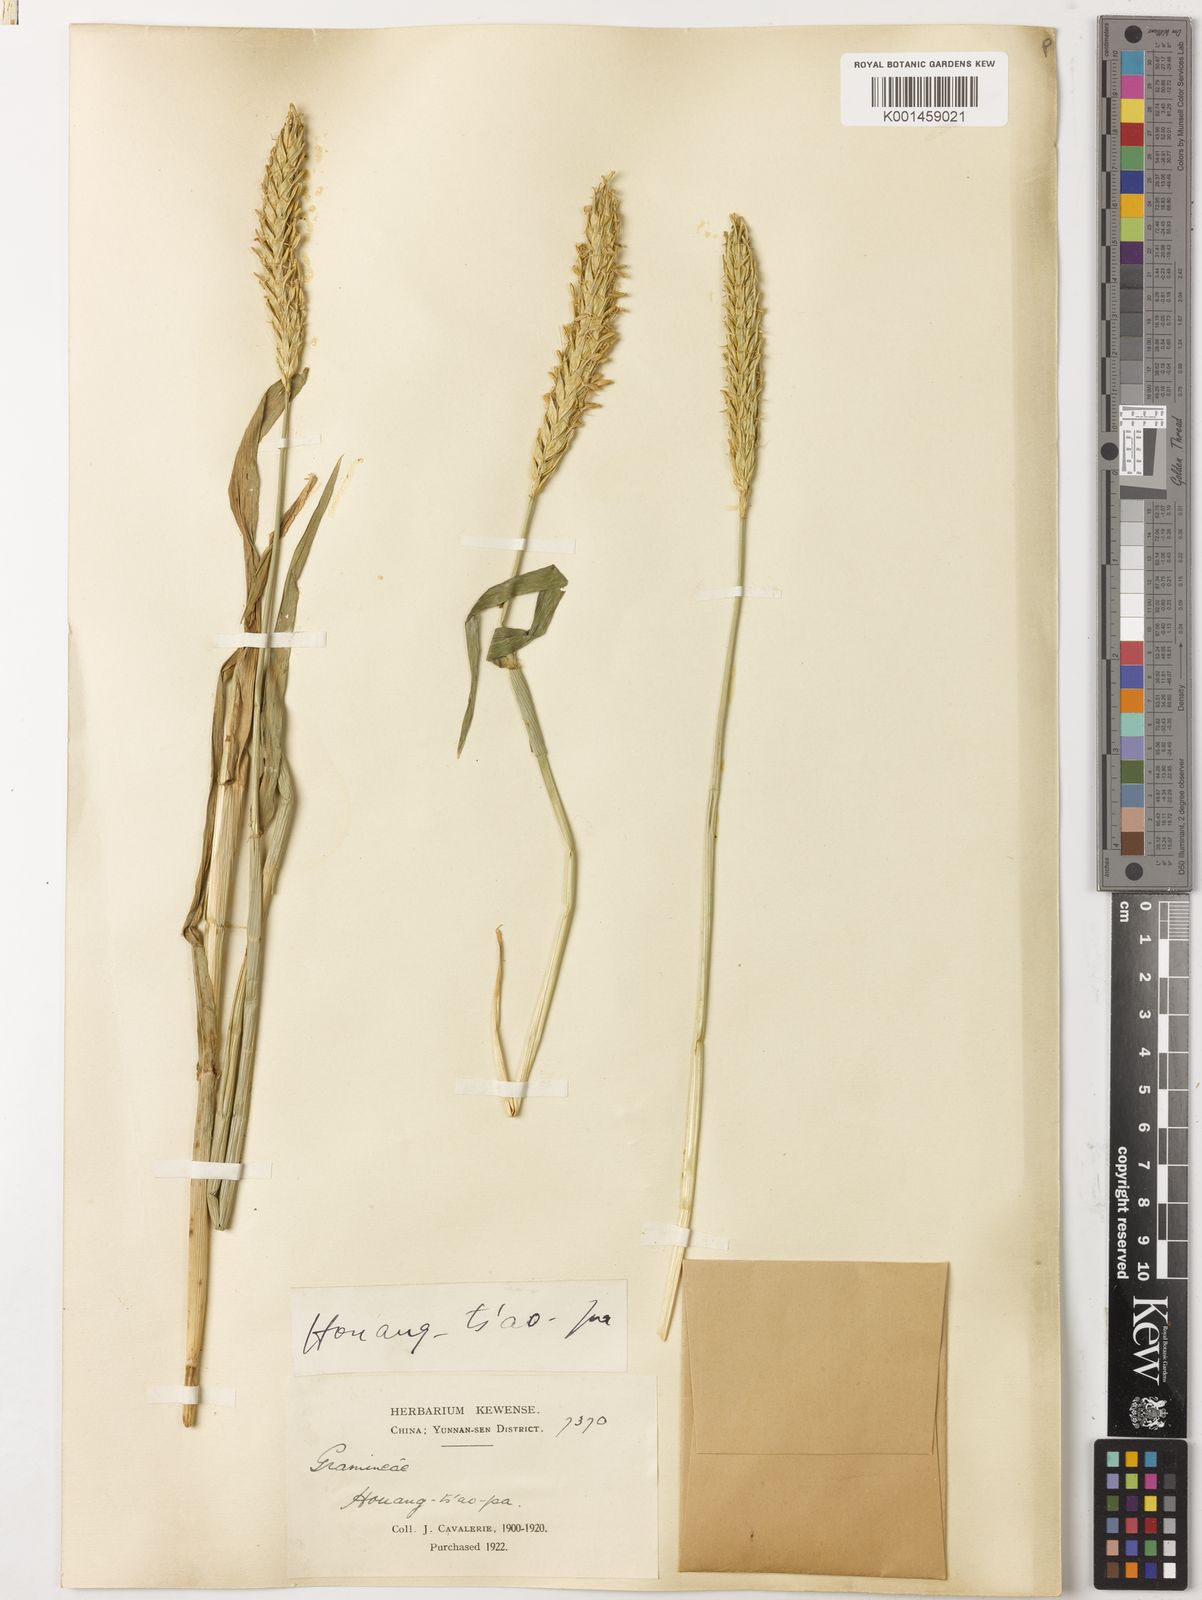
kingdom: Plantae
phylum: Tracheophyta
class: Liliopsida
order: Poales
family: Poaceae
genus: Hordeum
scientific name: Hordeum vulgare
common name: Common barley
